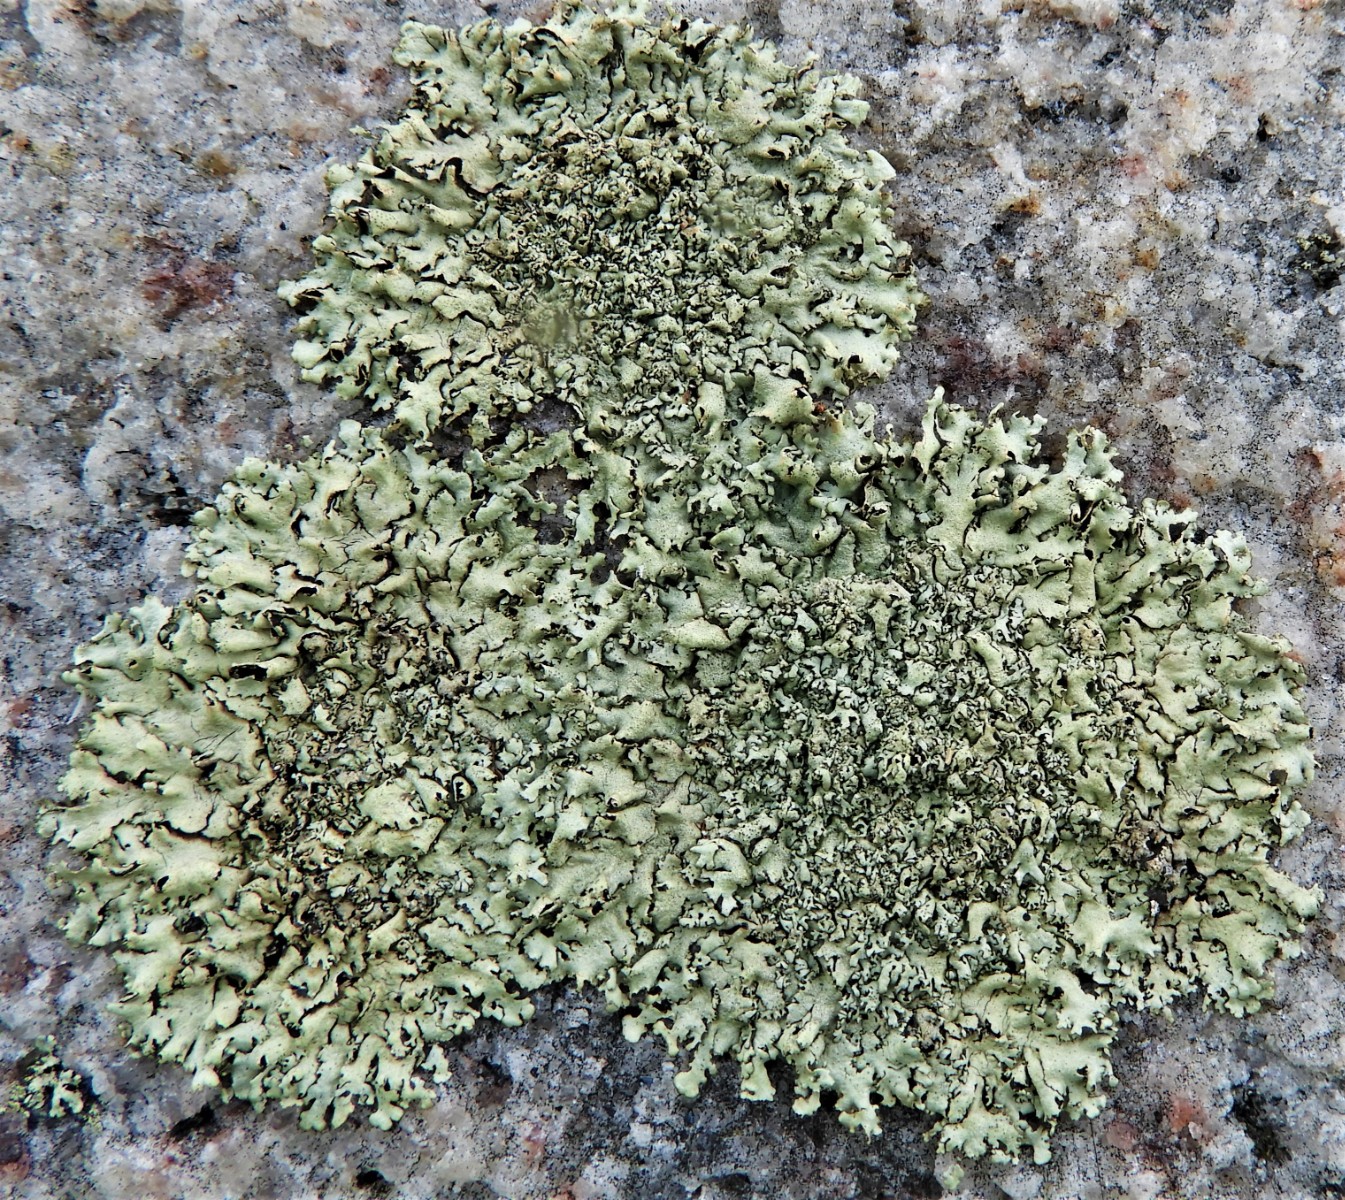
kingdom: Fungi
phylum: Ascomycota
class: Lecanoromycetes
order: Lecanorales
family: Parmeliaceae
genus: Xanthoparmelia
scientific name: Xanthoparmelia stenophylla
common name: Shingled rock shield
